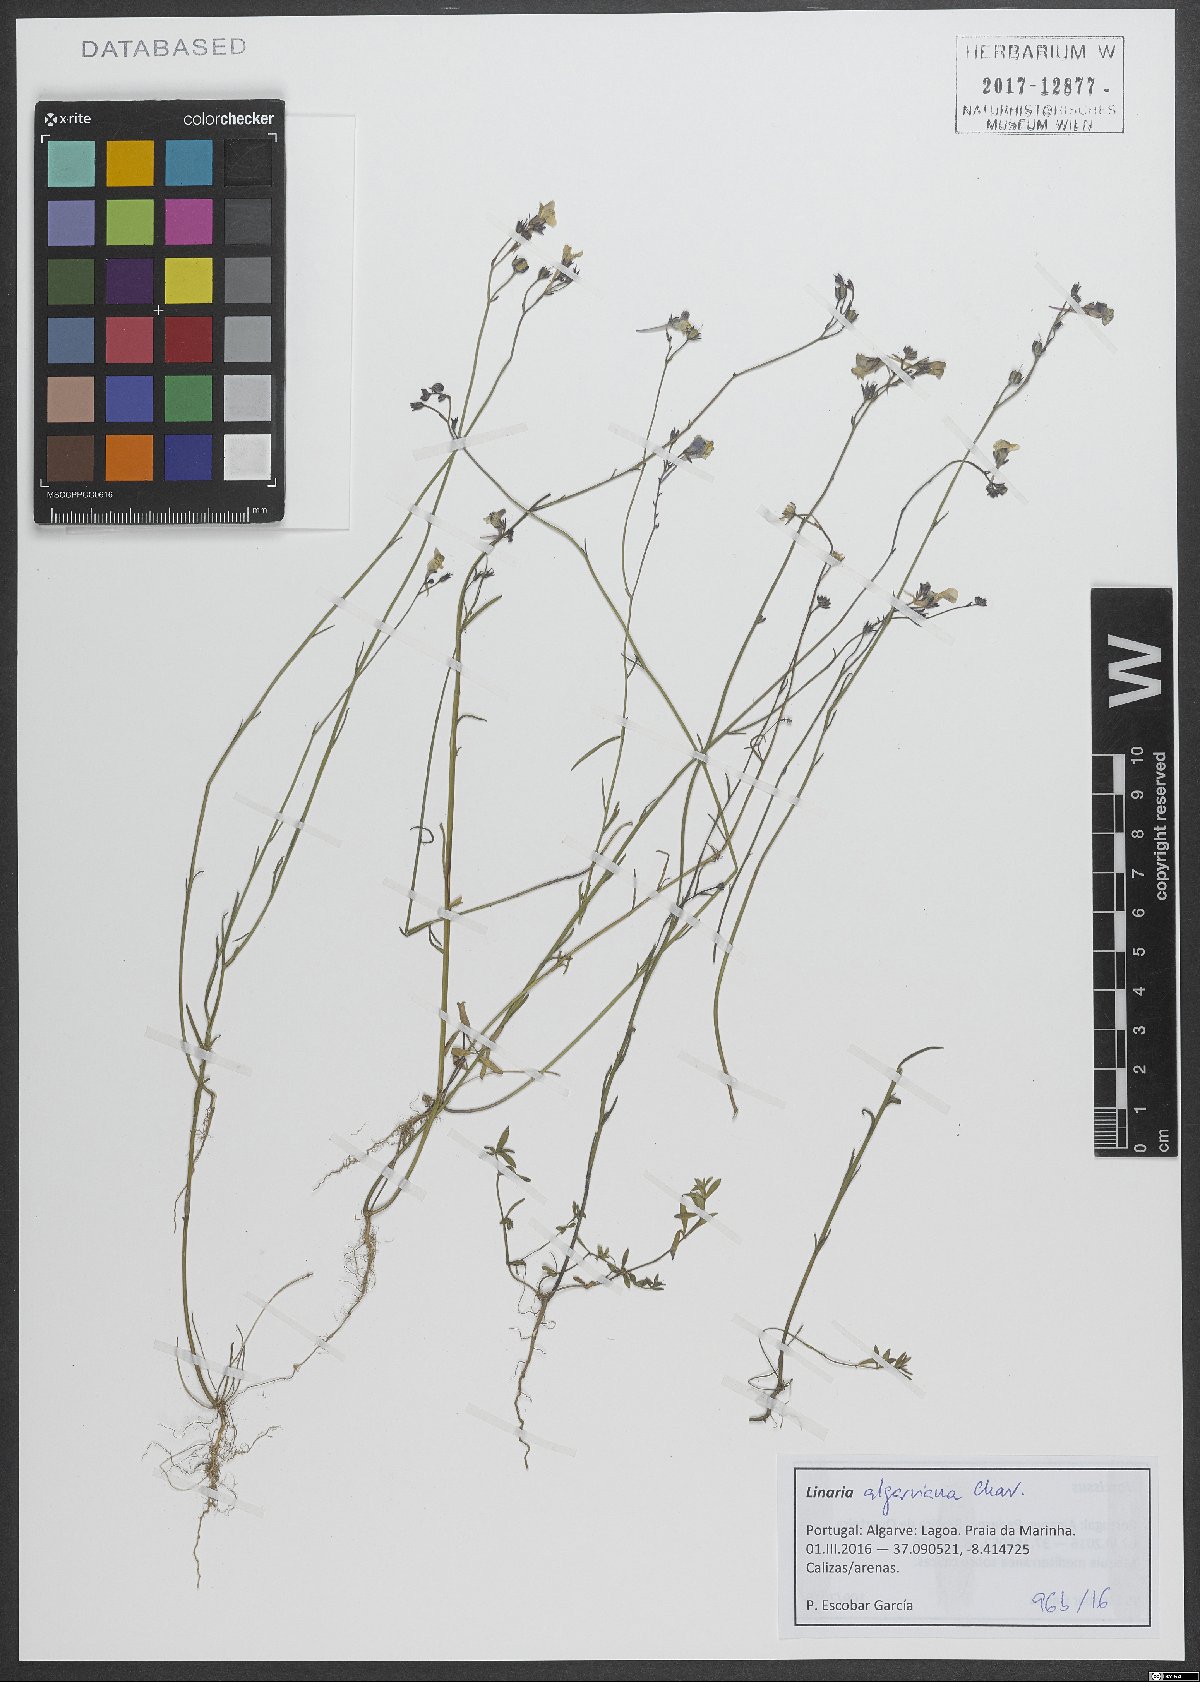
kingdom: Plantae
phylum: Tracheophyta
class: Magnoliopsida
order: Lamiales
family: Plantaginaceae
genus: Linaria
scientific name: Linaria algarviana
